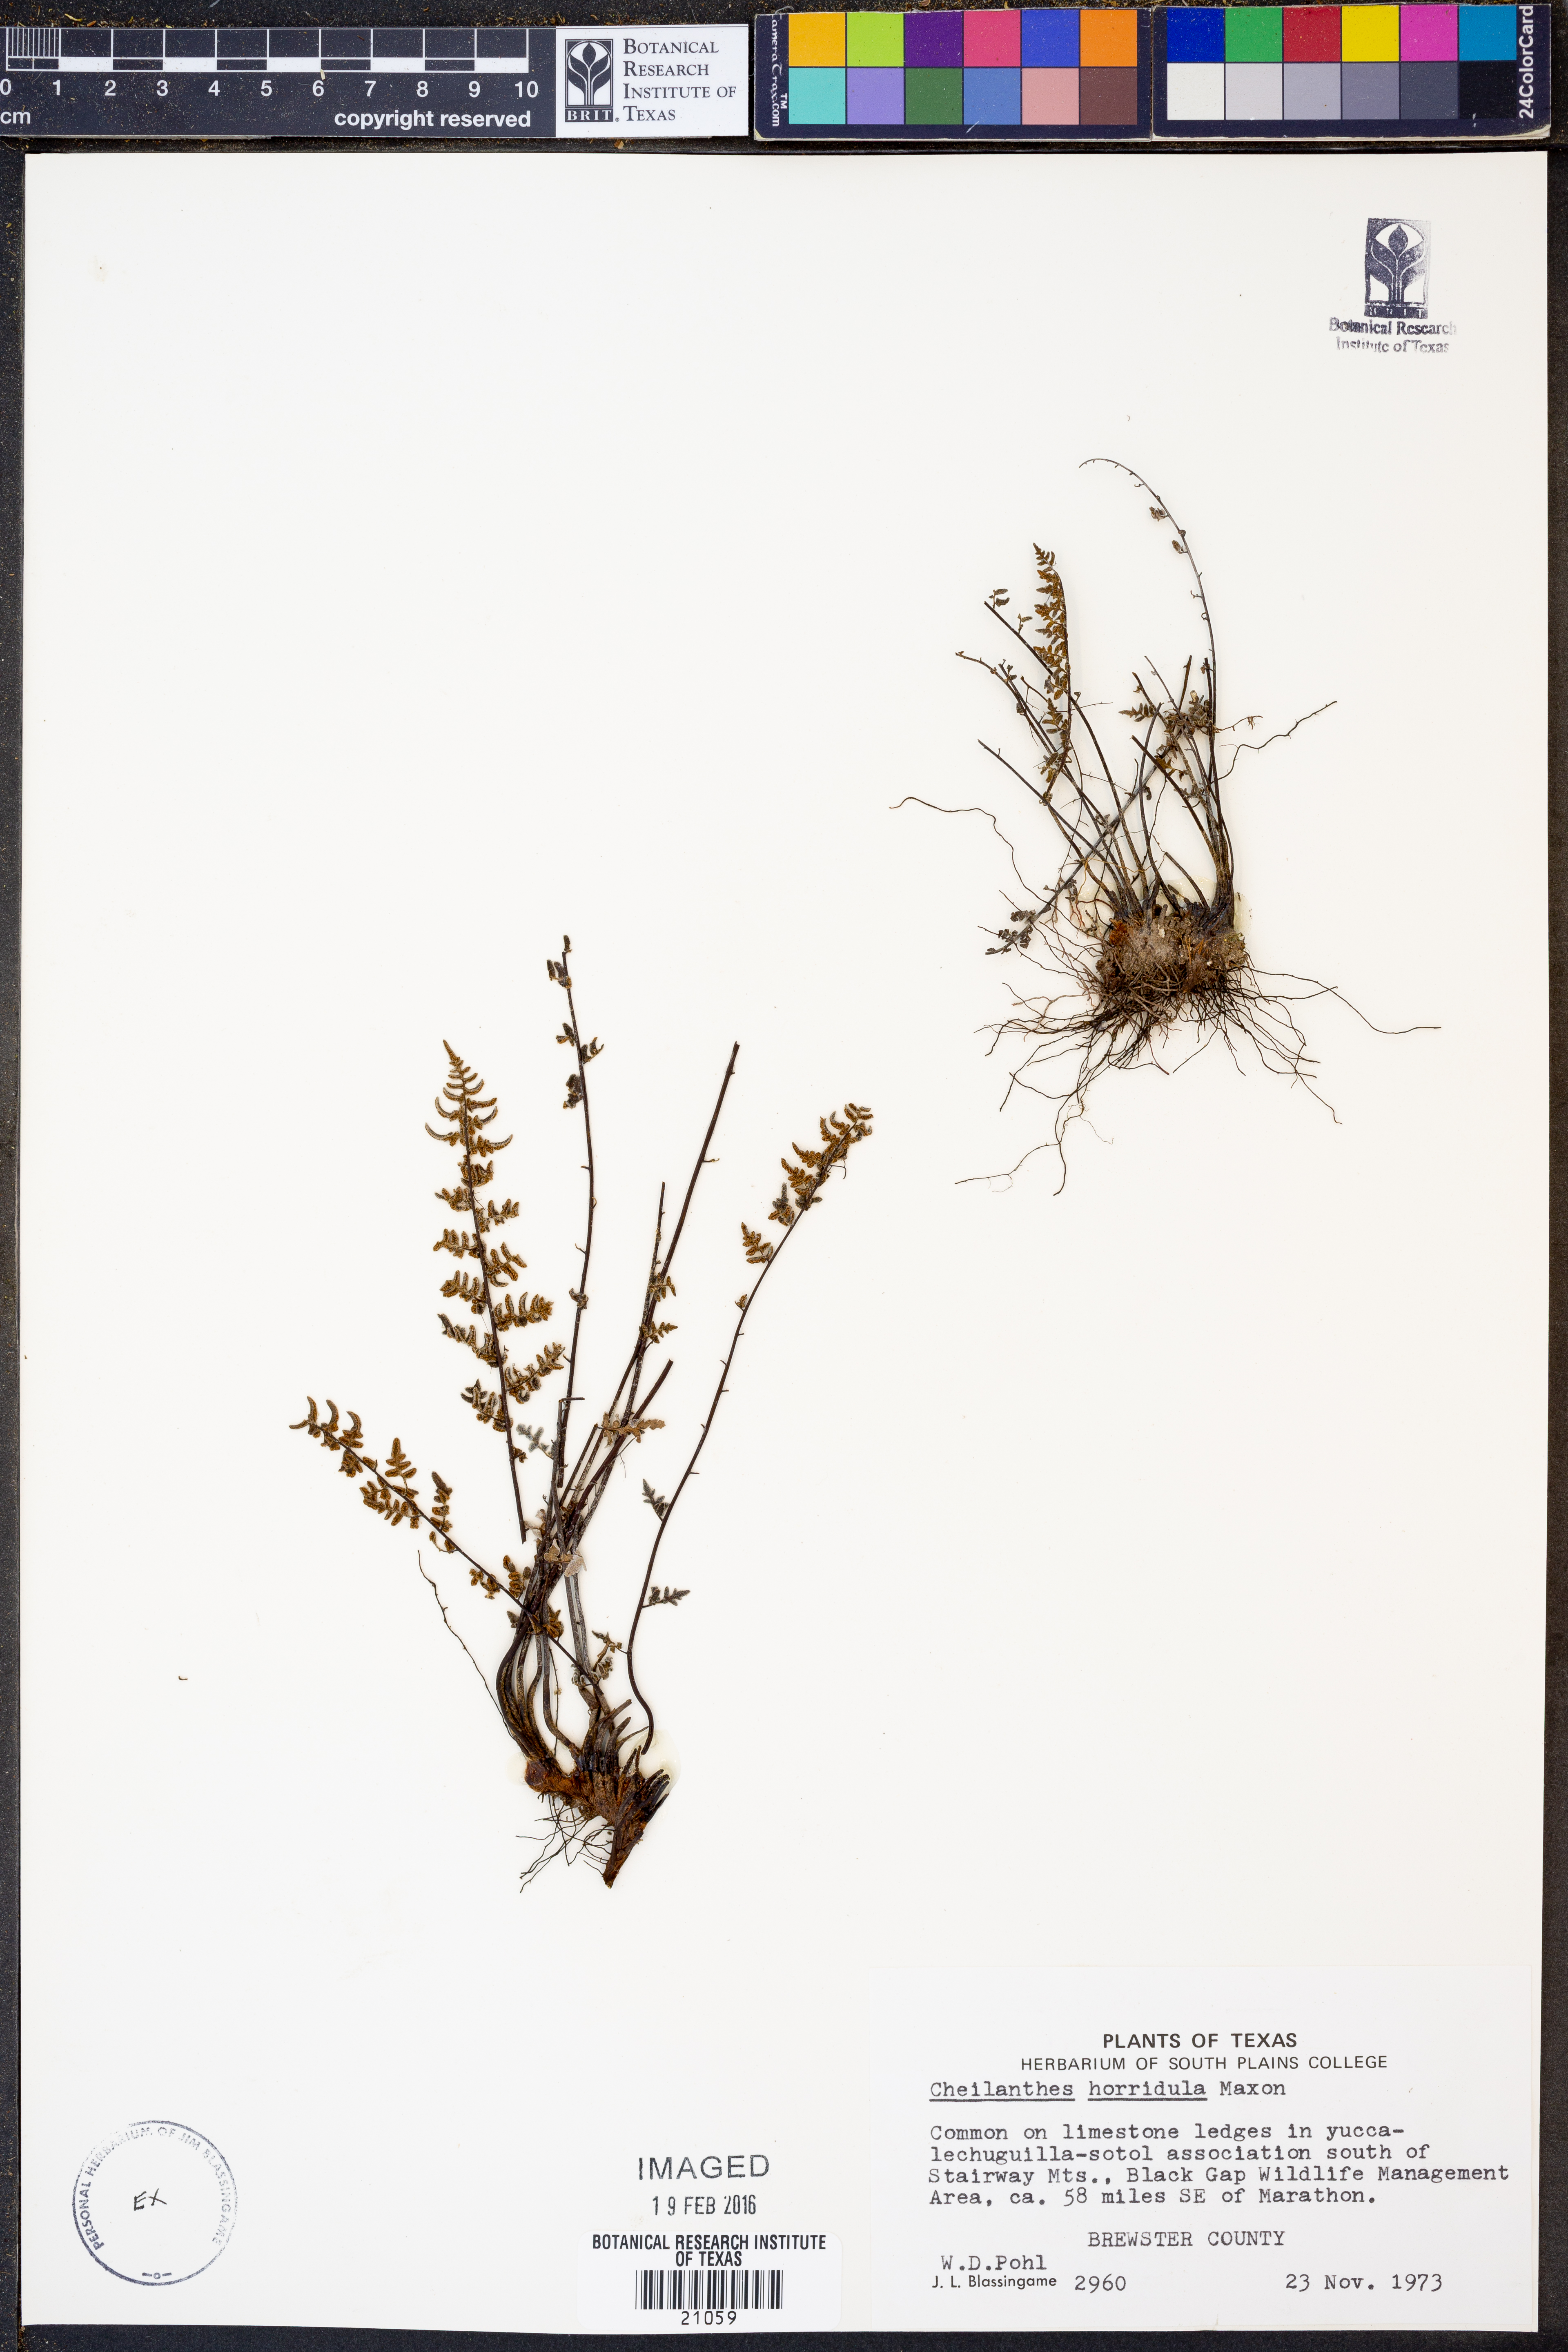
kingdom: Plantae
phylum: Tracheophyta
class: Polypodiopsida
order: Polypodiales
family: Pteridaceae
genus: Myriopteris
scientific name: Myriopteris scabra
